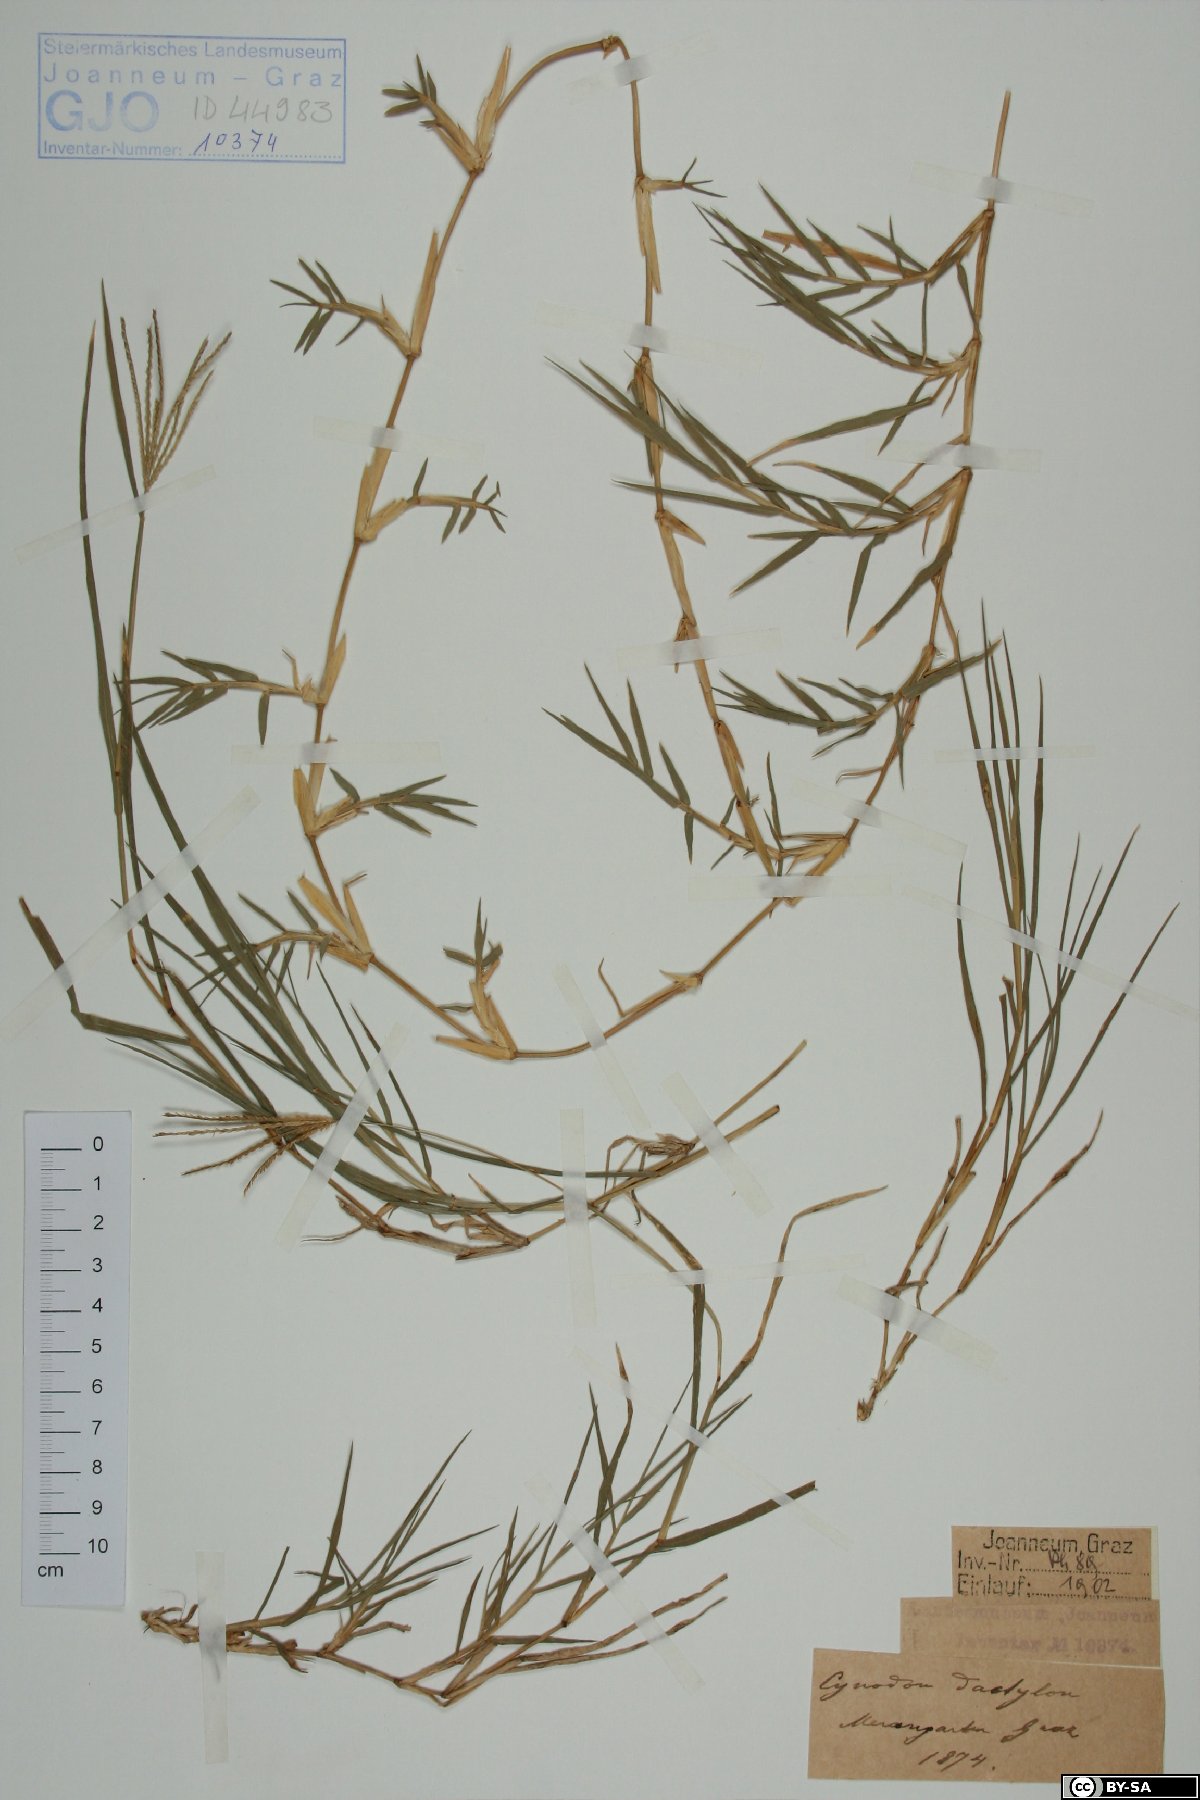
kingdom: Plantae
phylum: Tracheophyta
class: Liliopsida
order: Poales
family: Poaceae
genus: Cynodon
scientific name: Cynodon dactylon
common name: Bermuda grass
